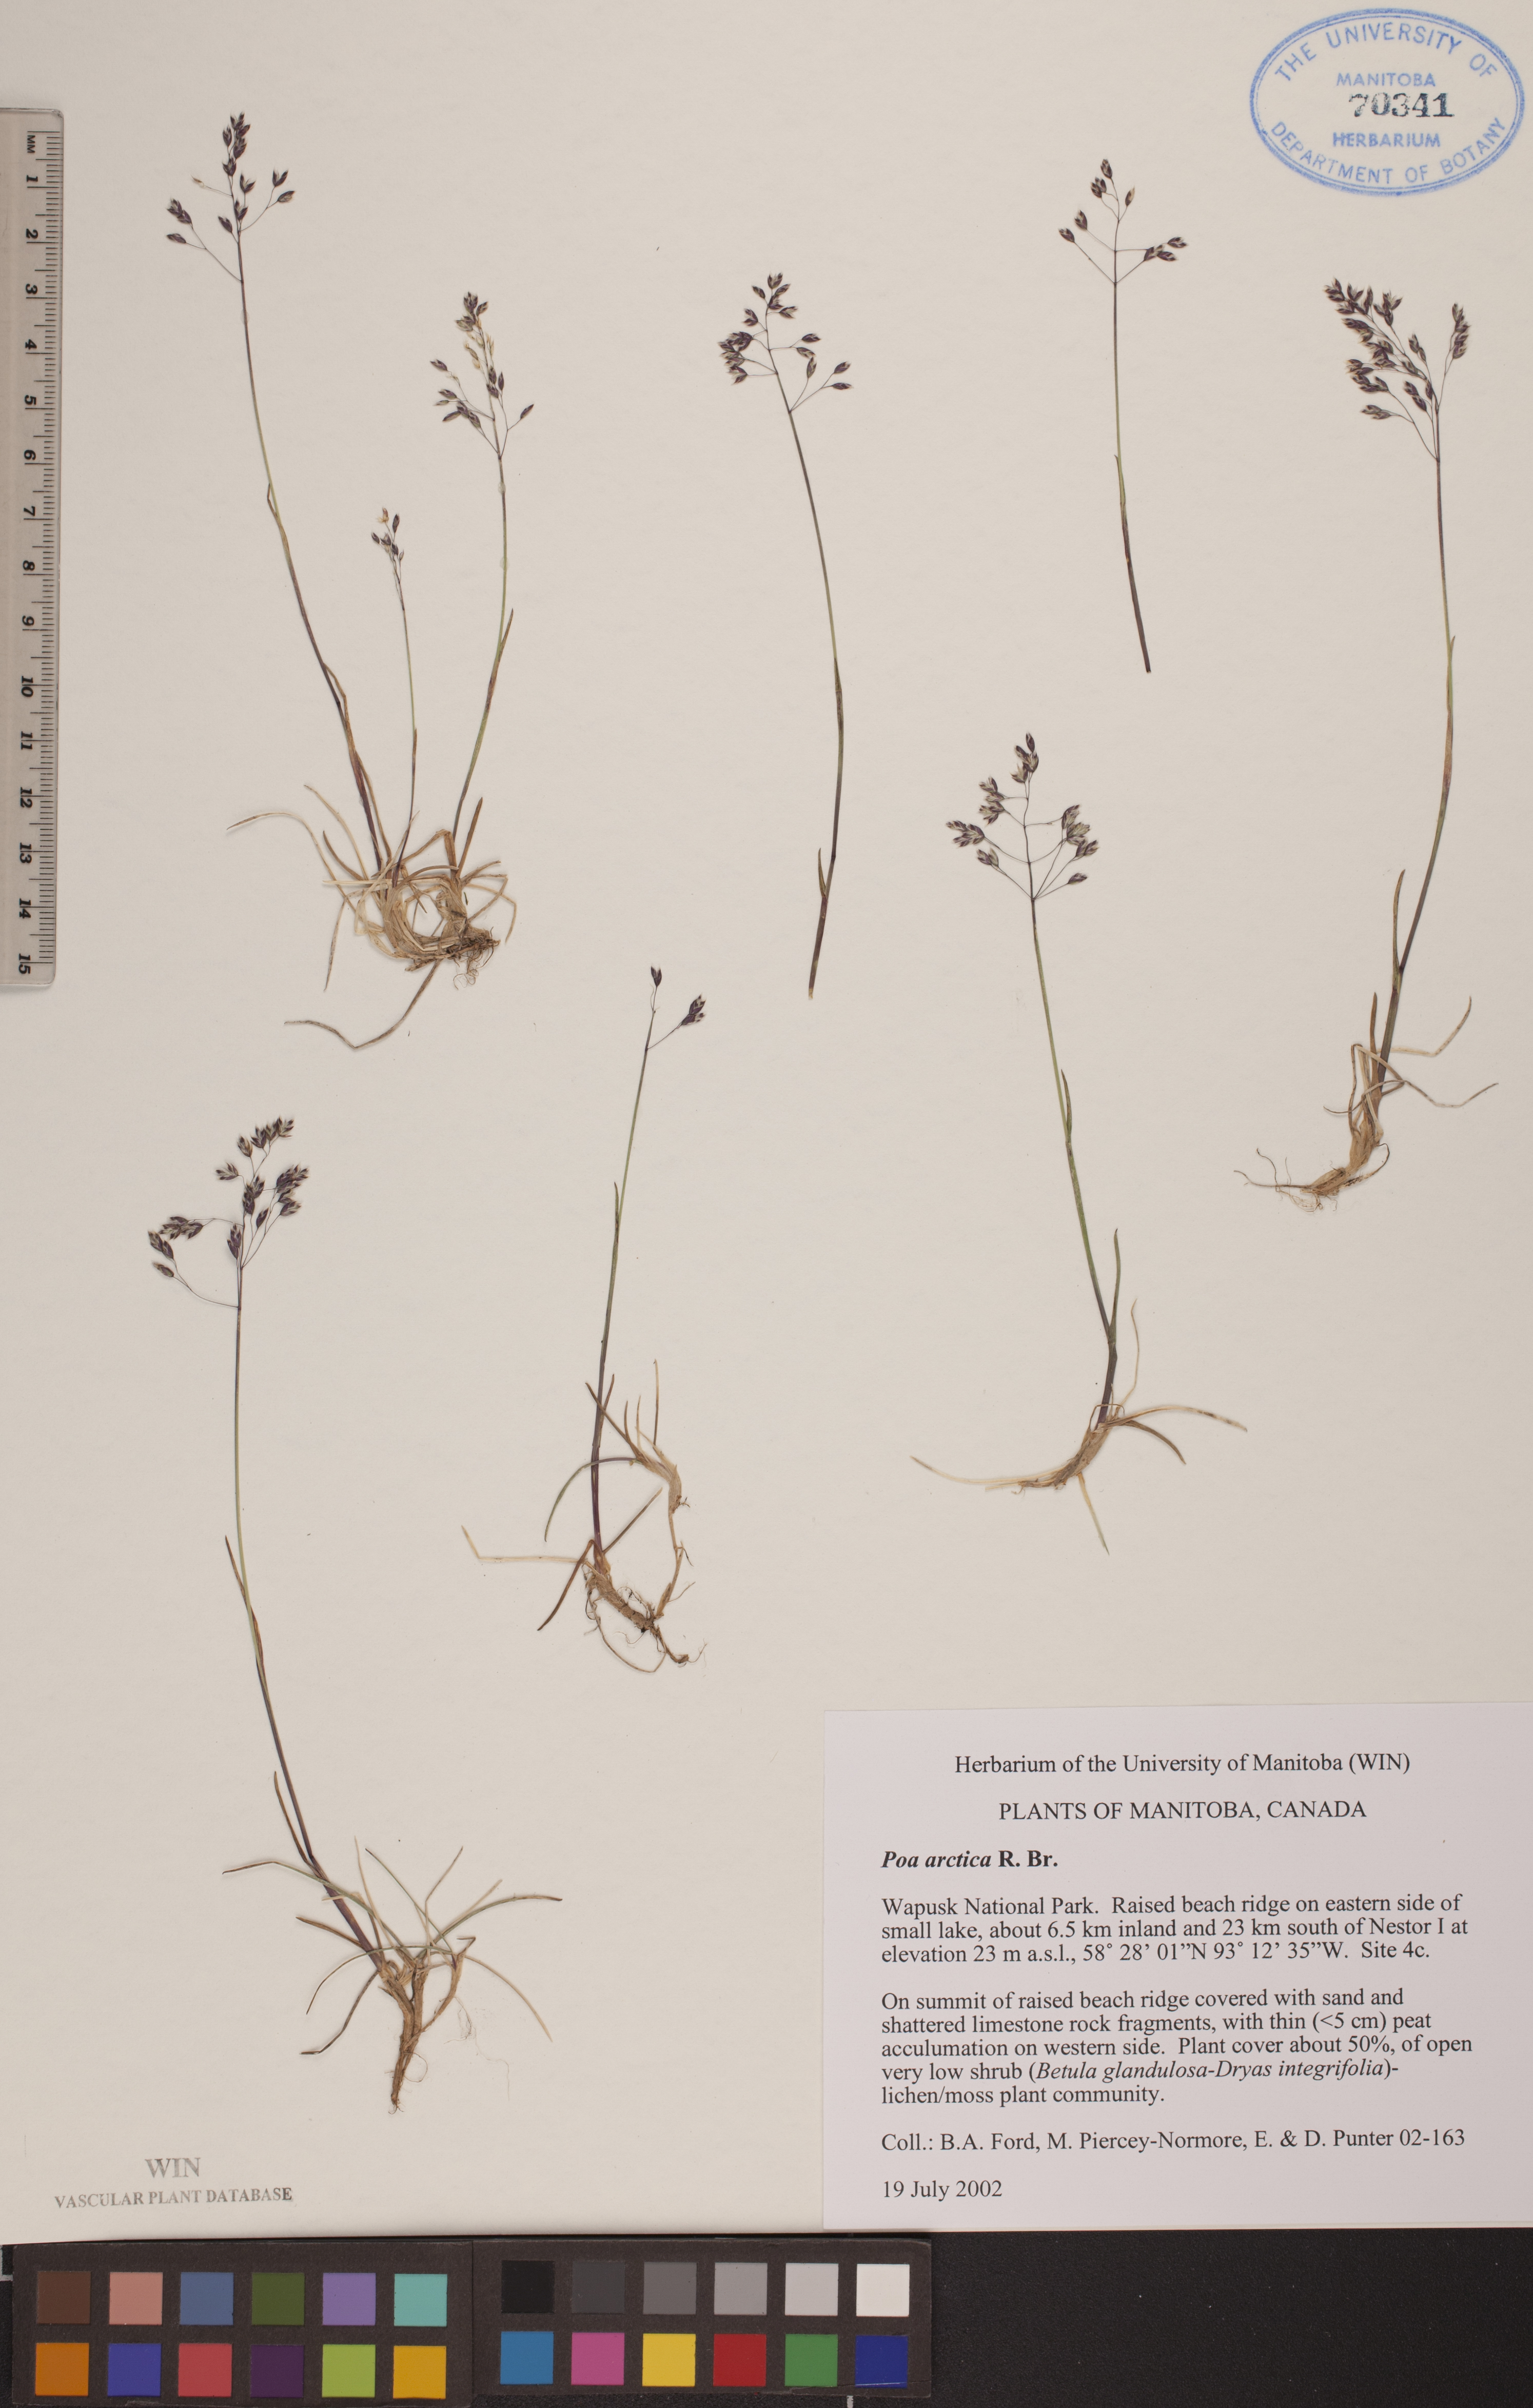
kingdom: Plantae
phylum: Tracheophyta
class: Liliopsida
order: Poales
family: Poaceae
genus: Poa
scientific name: Poa arctica
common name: Arctic bluegrass
